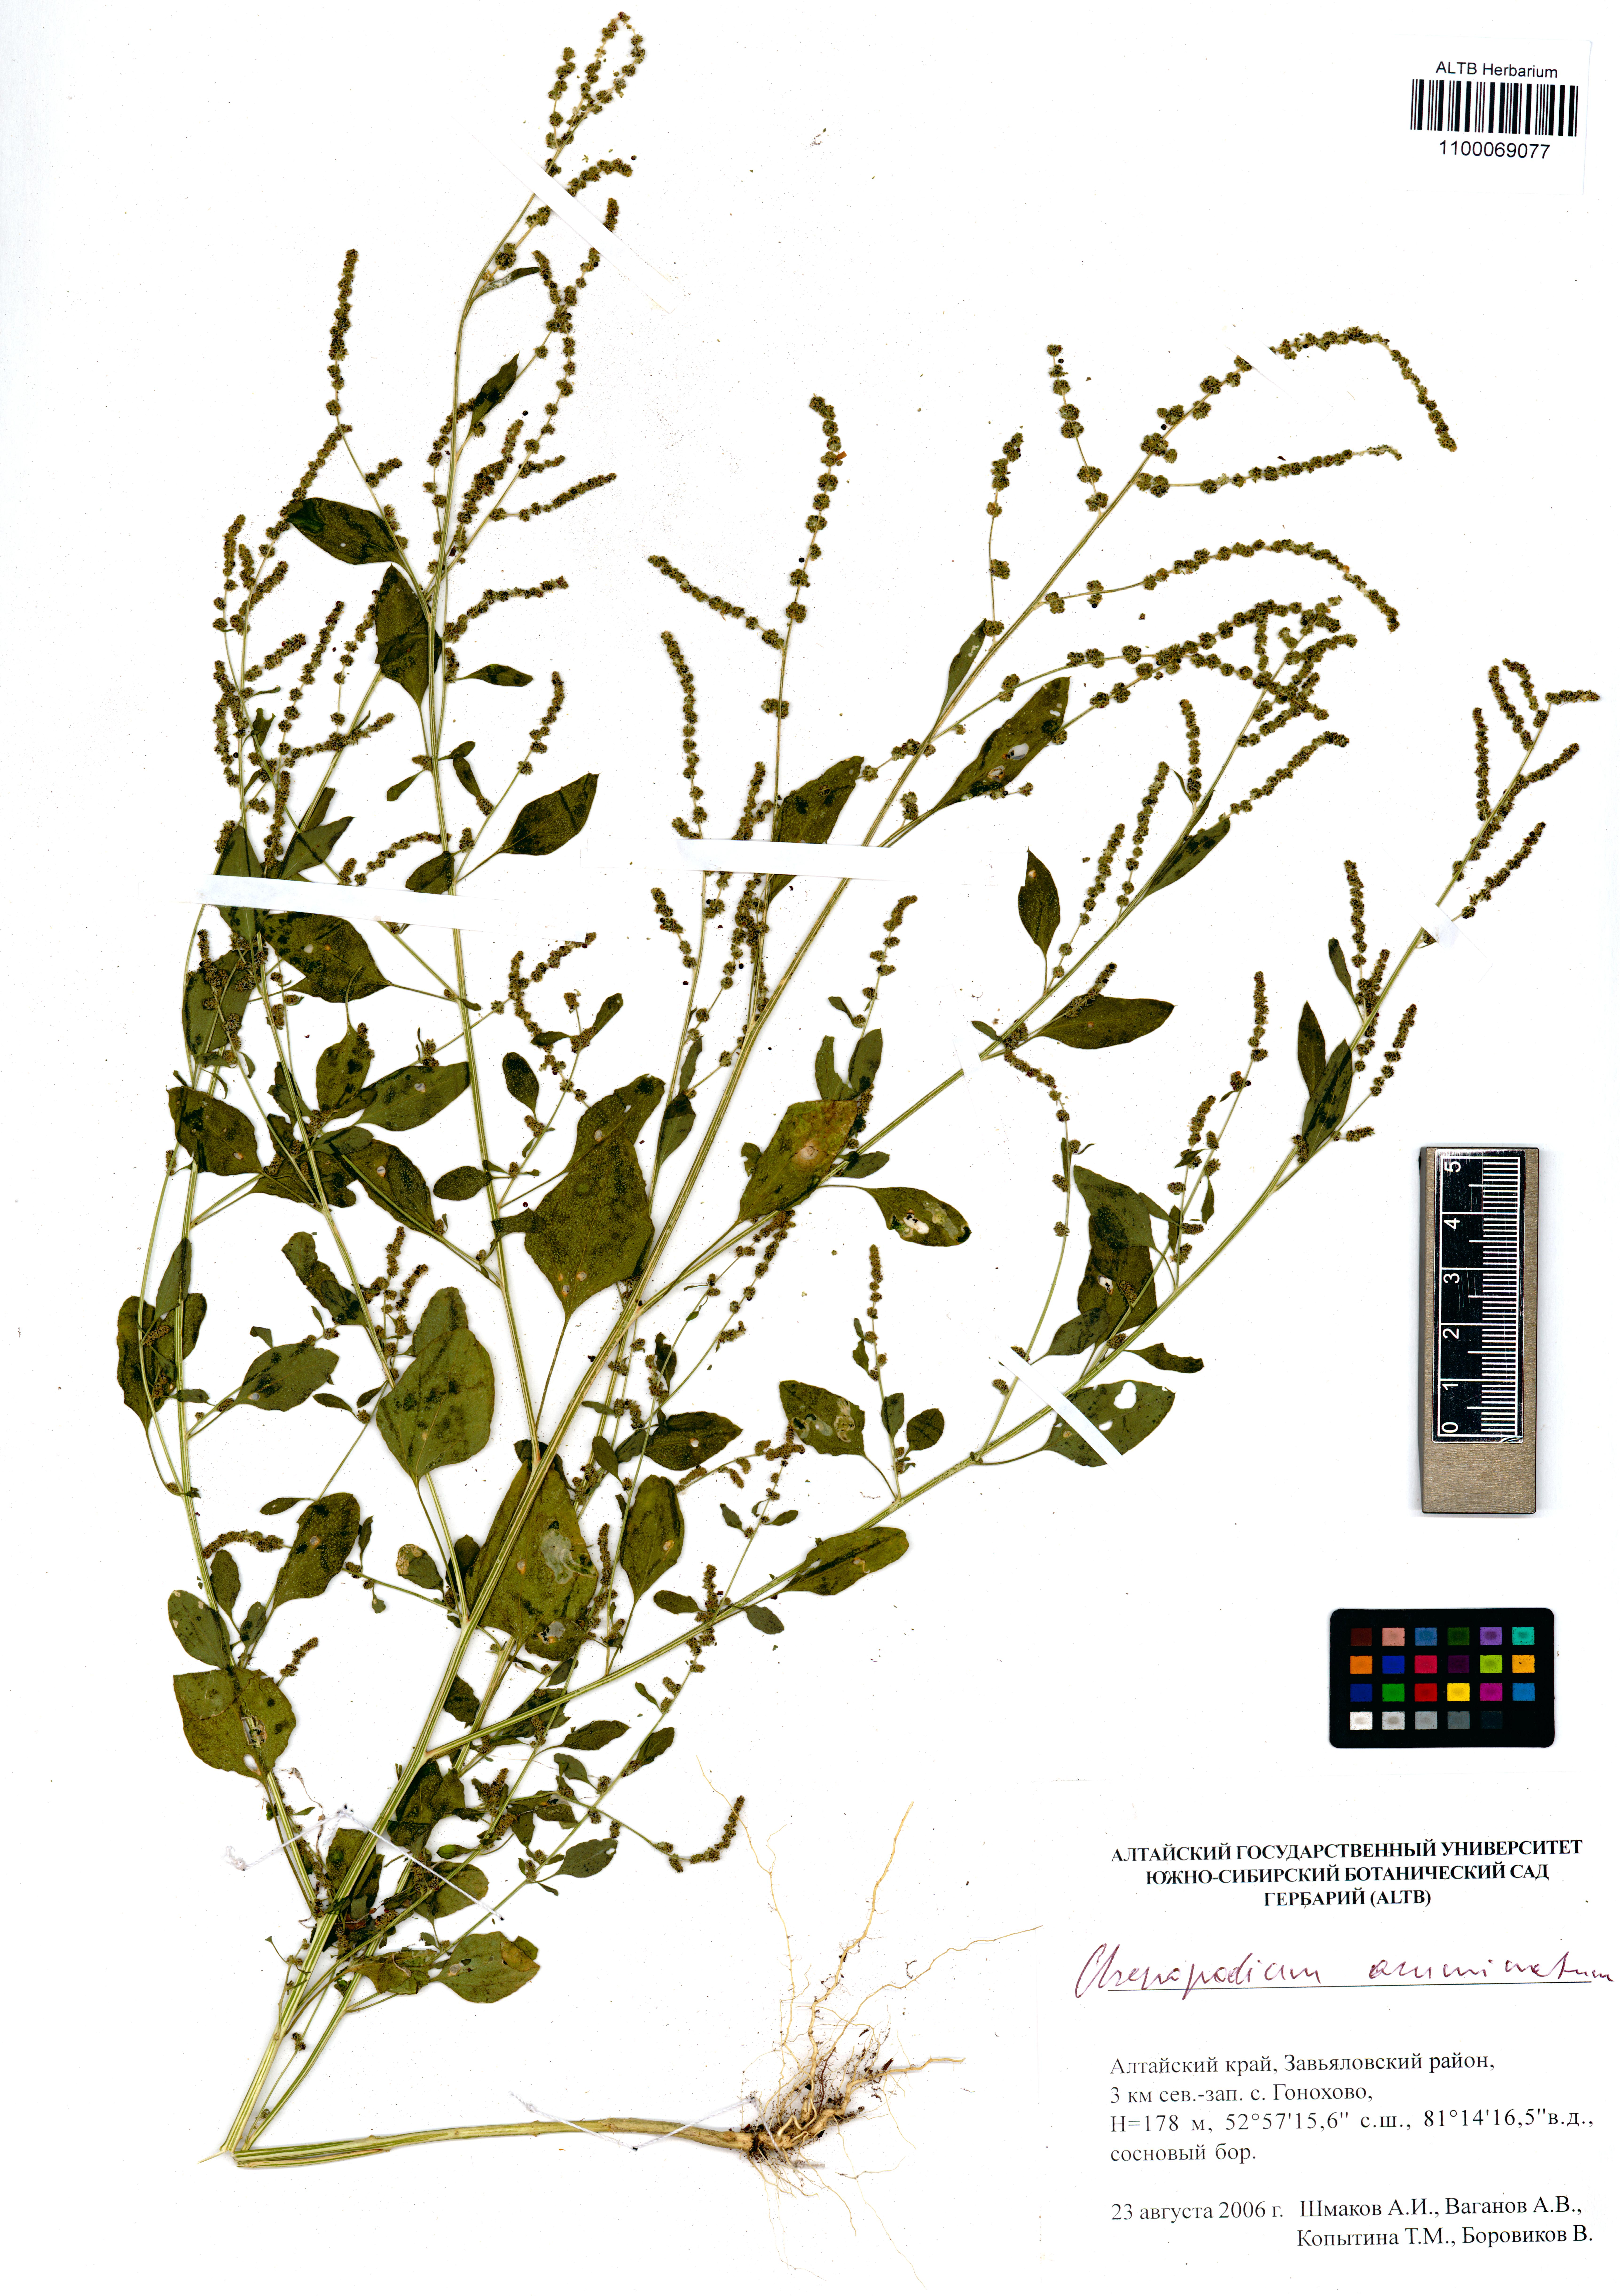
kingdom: Plantae
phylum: Tracheophyta
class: Magnoliopsida
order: Caryophyllales
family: Amaranthaceae
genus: Oxybasis
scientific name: Oxybasis rubra
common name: Red goosefoot
